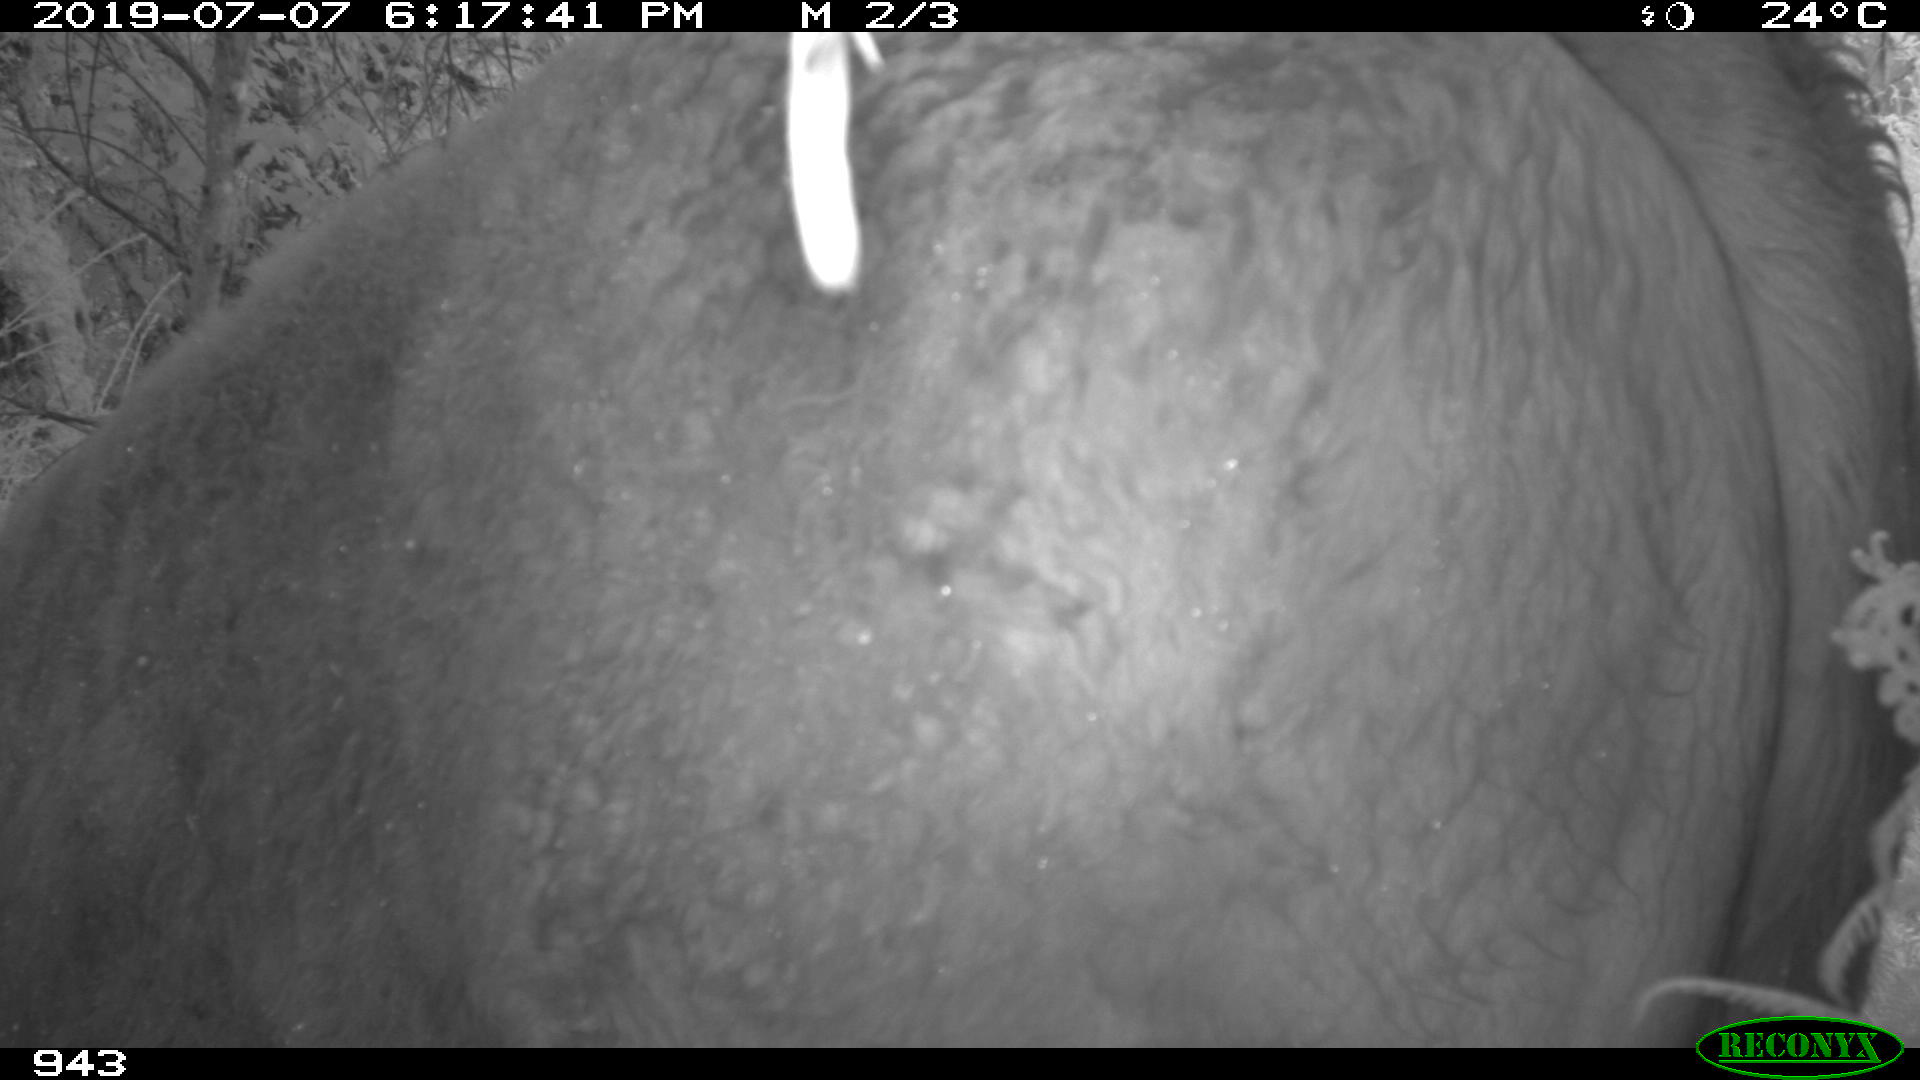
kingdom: Animalia
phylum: Chordata
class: Mammalia
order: Artiodactyla
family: Bovidae
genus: Bos
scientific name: Bos taurus
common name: Domesticated cattle
